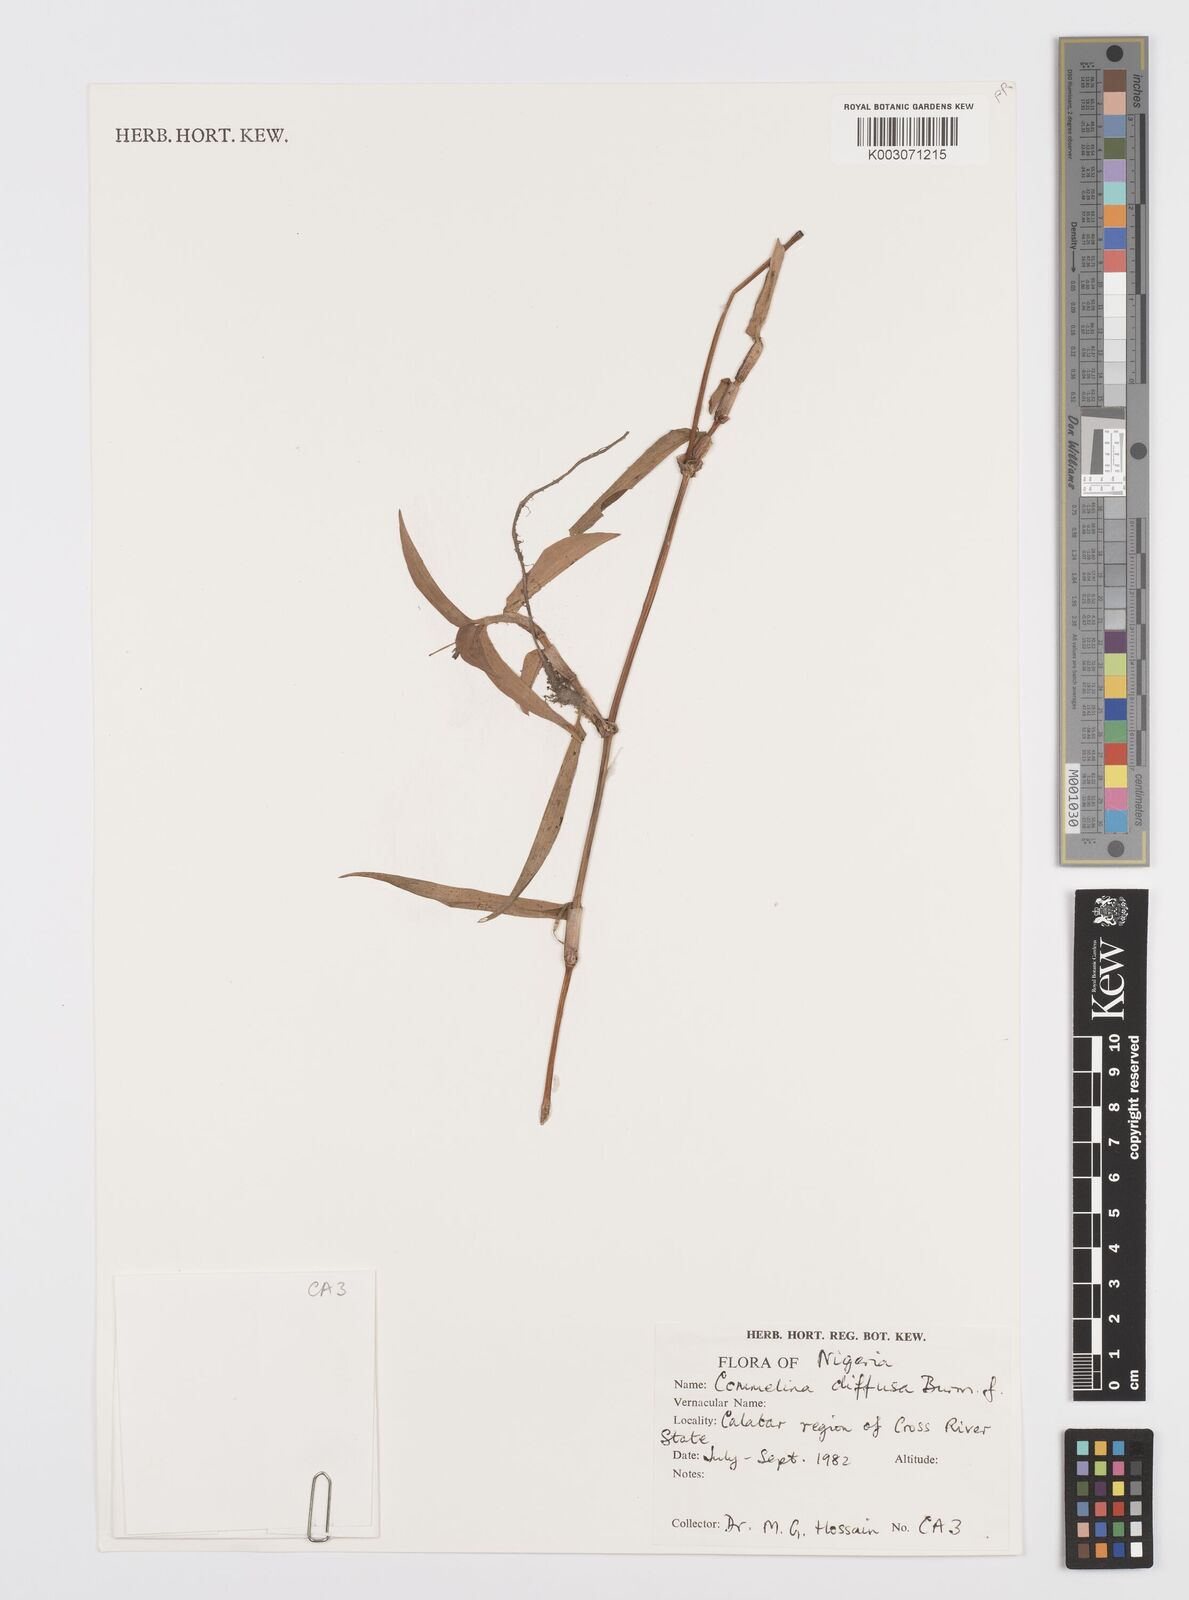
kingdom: Plantae
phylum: Tracheophyta
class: Liliopsida
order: Commelinales
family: Commelinaceae
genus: Commelina
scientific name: Commelina diffusa
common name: Climbing dayflower
